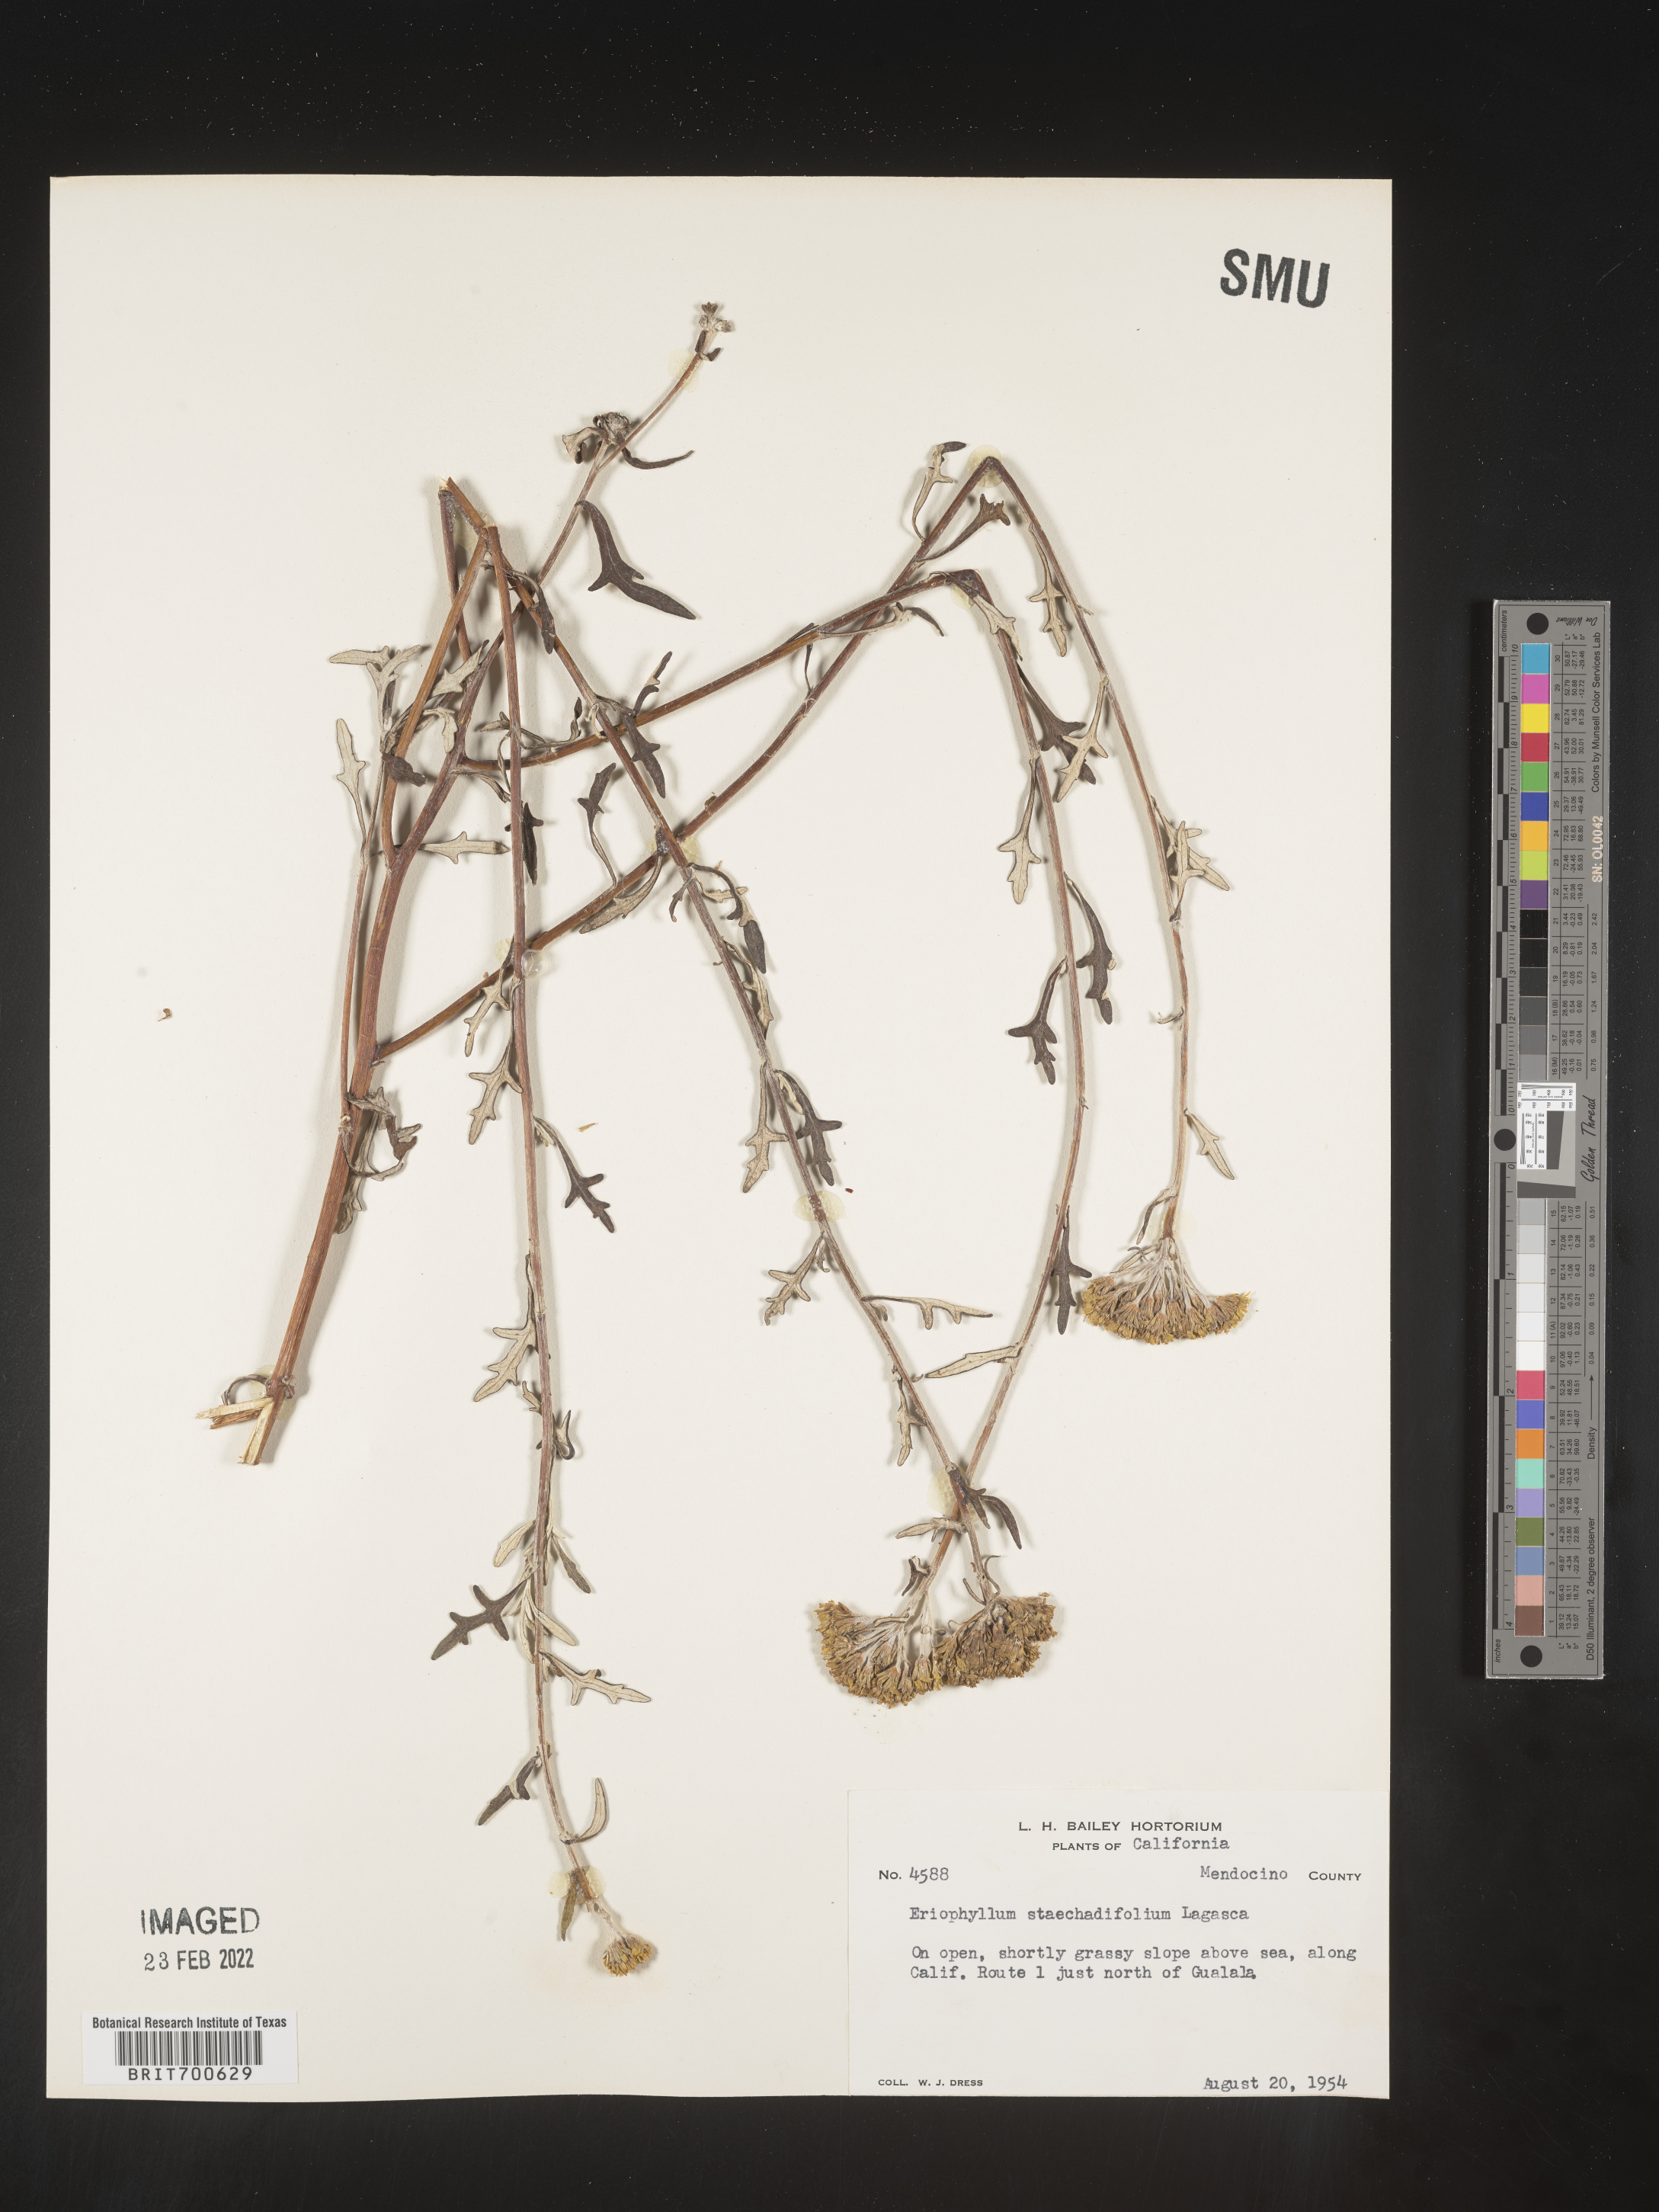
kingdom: Plantae
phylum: Tracheophyta
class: Magnoliopsida
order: Asterales
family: Asteraceae
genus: Eriophyllum
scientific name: Eriophyllum staechadifolium
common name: Lizardtail
